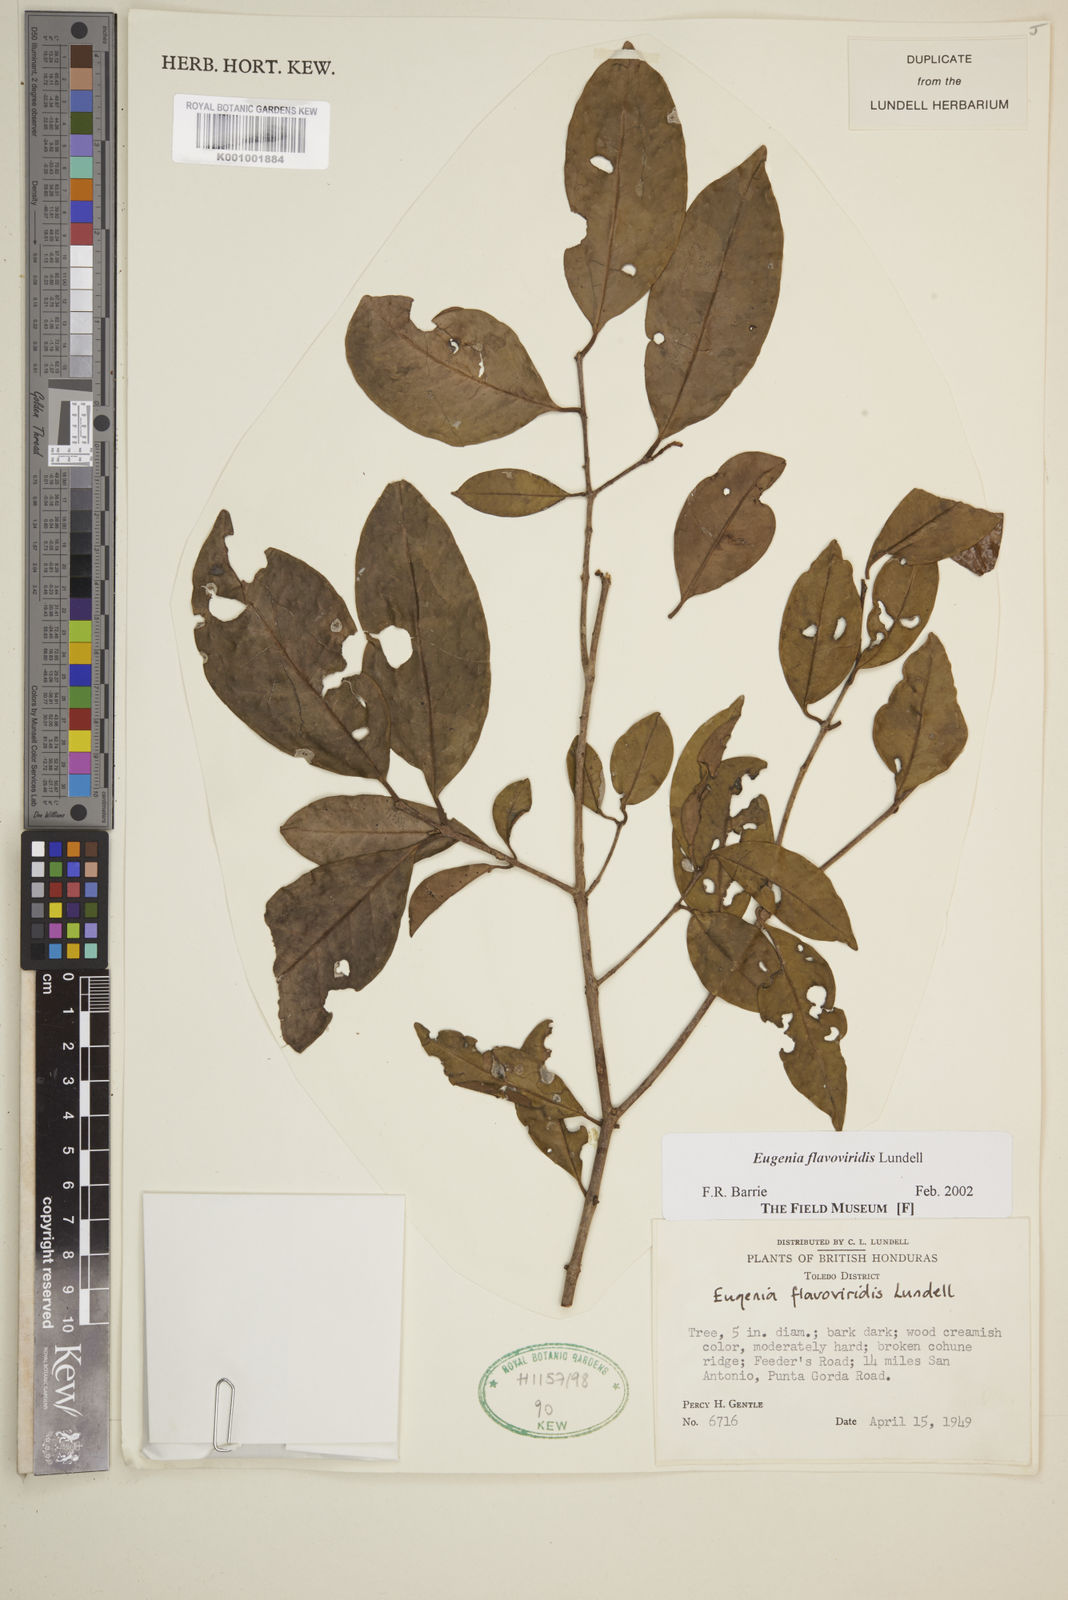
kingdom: Plantae
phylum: Tracheophyta
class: Magnoliopsida
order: Myrtales
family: Myrtaceae
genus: Eugenia
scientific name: Eugenia flavoviridis
